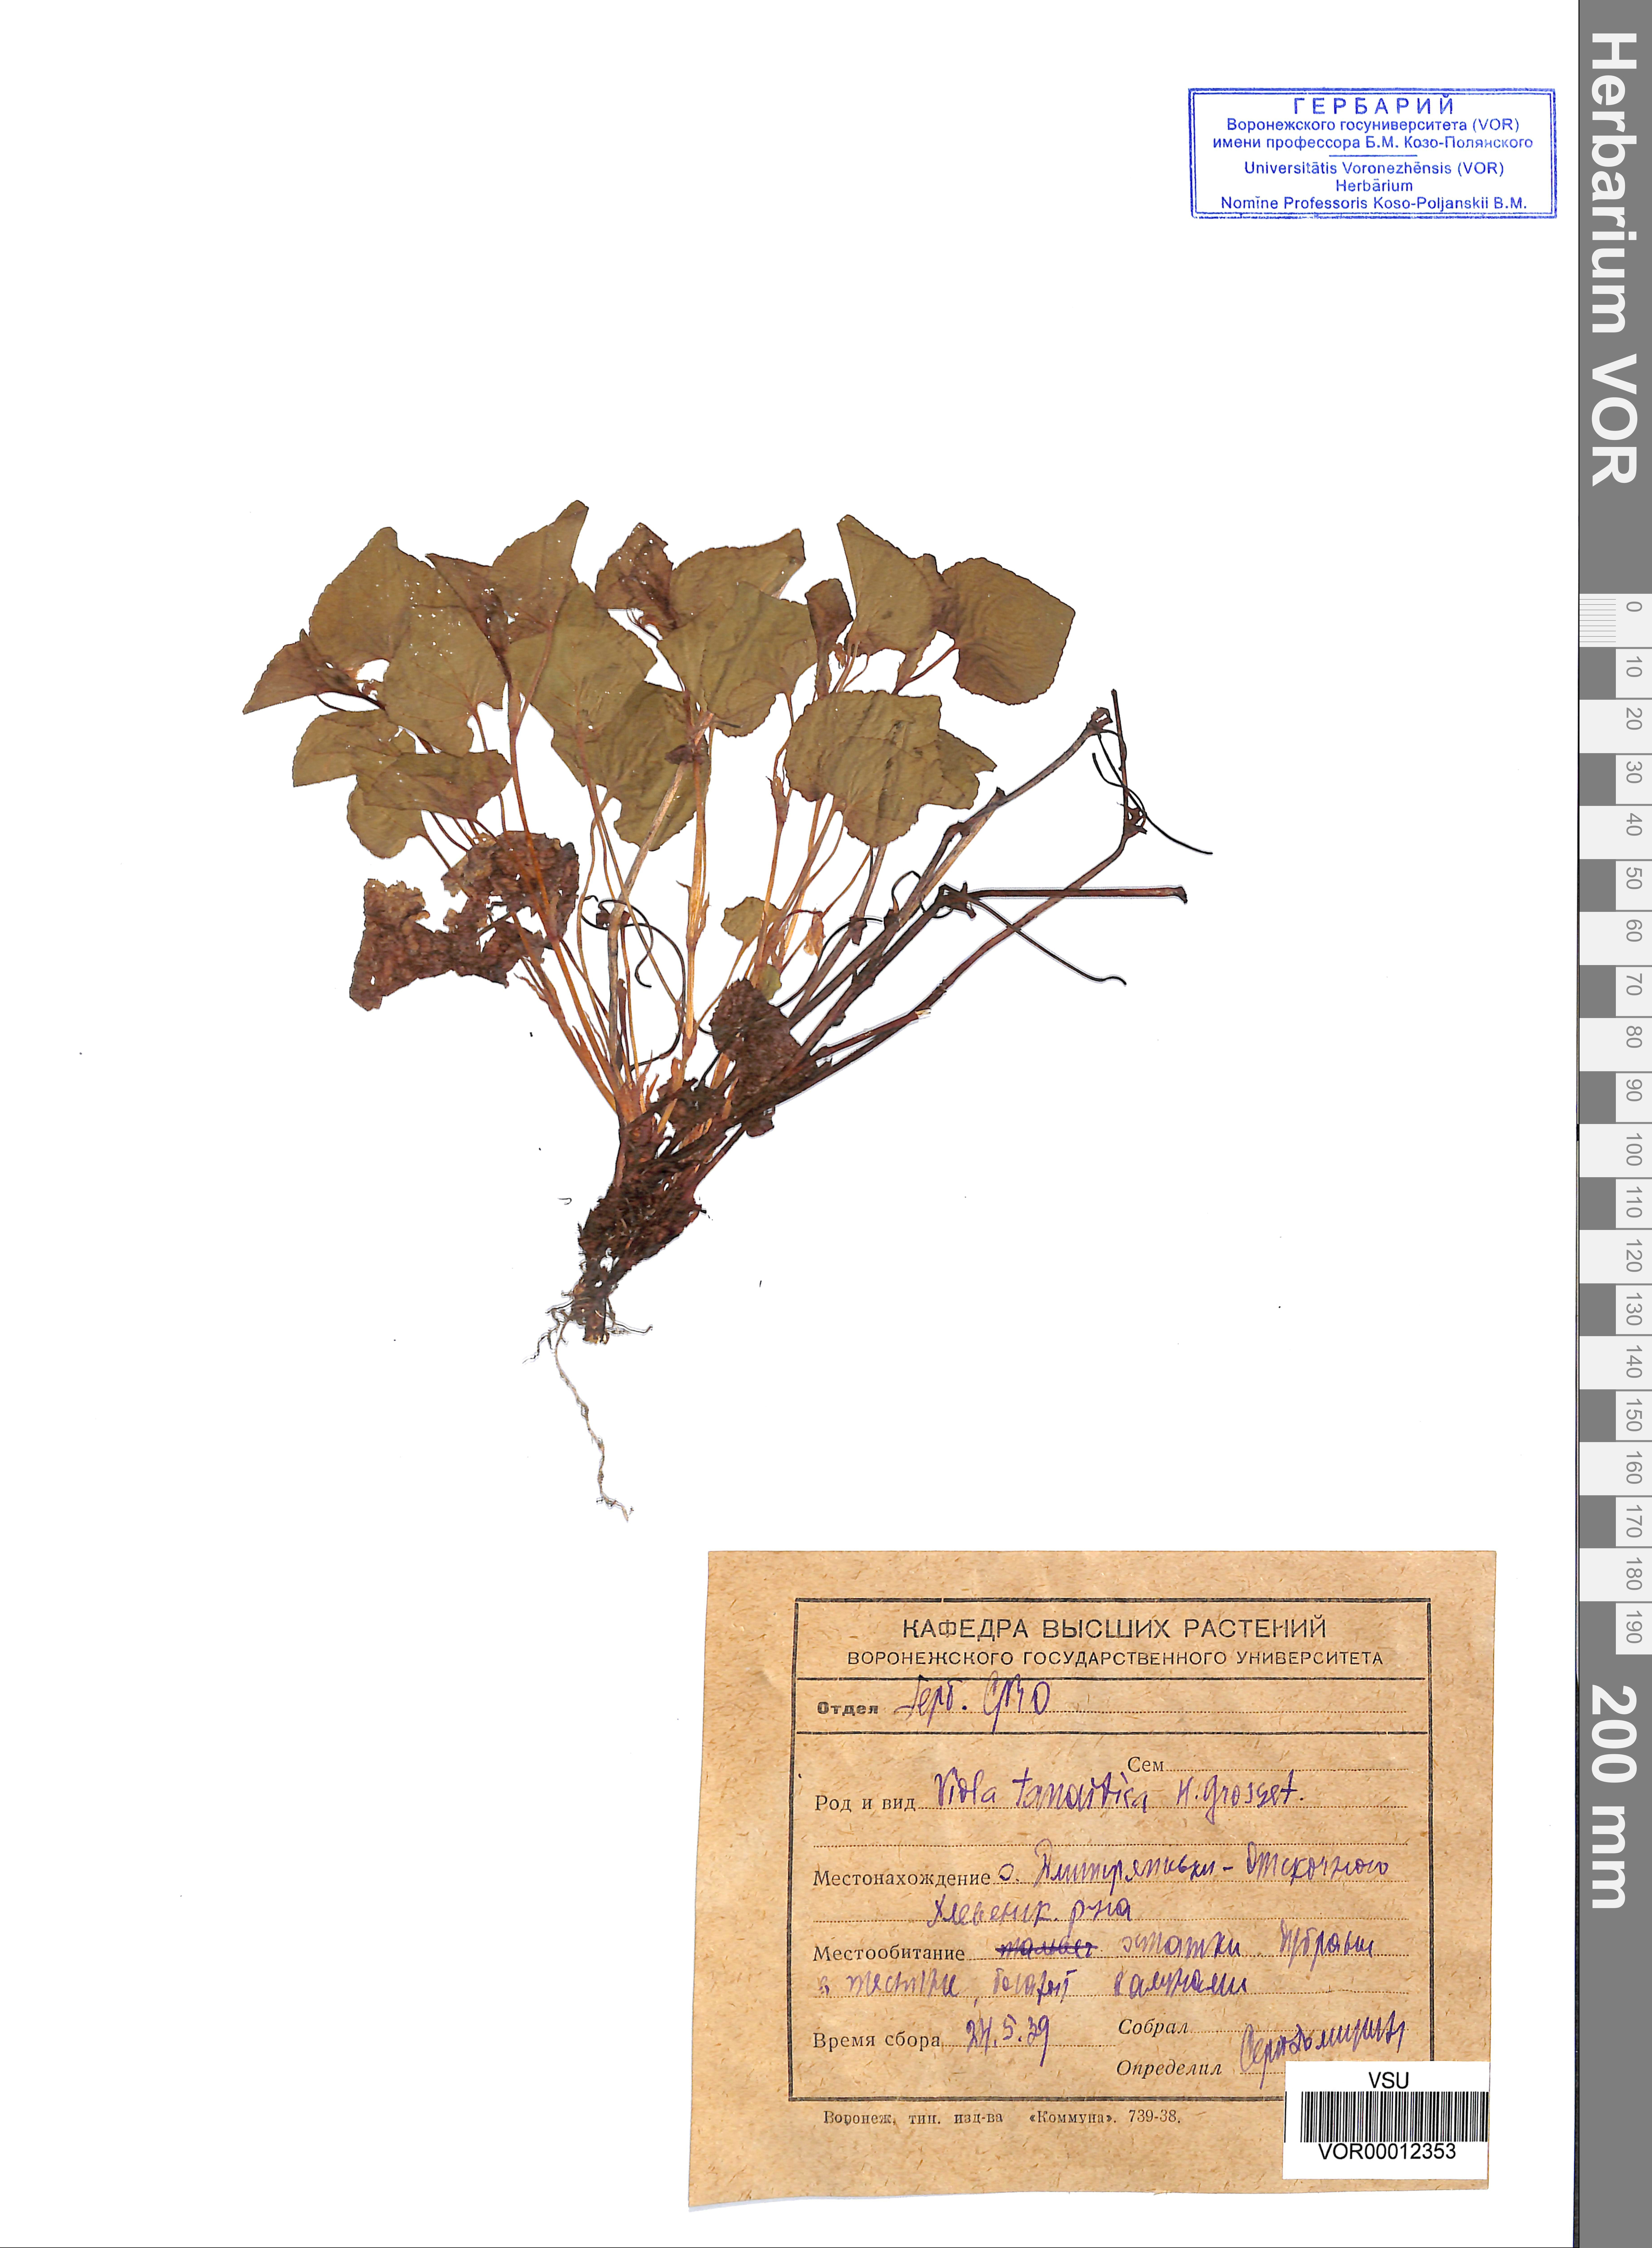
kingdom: Plantae
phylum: Tracheophyta
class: Magnoliopsida
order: Malpighiales
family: Violaceae
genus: Viola
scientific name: Viola tanaitica
